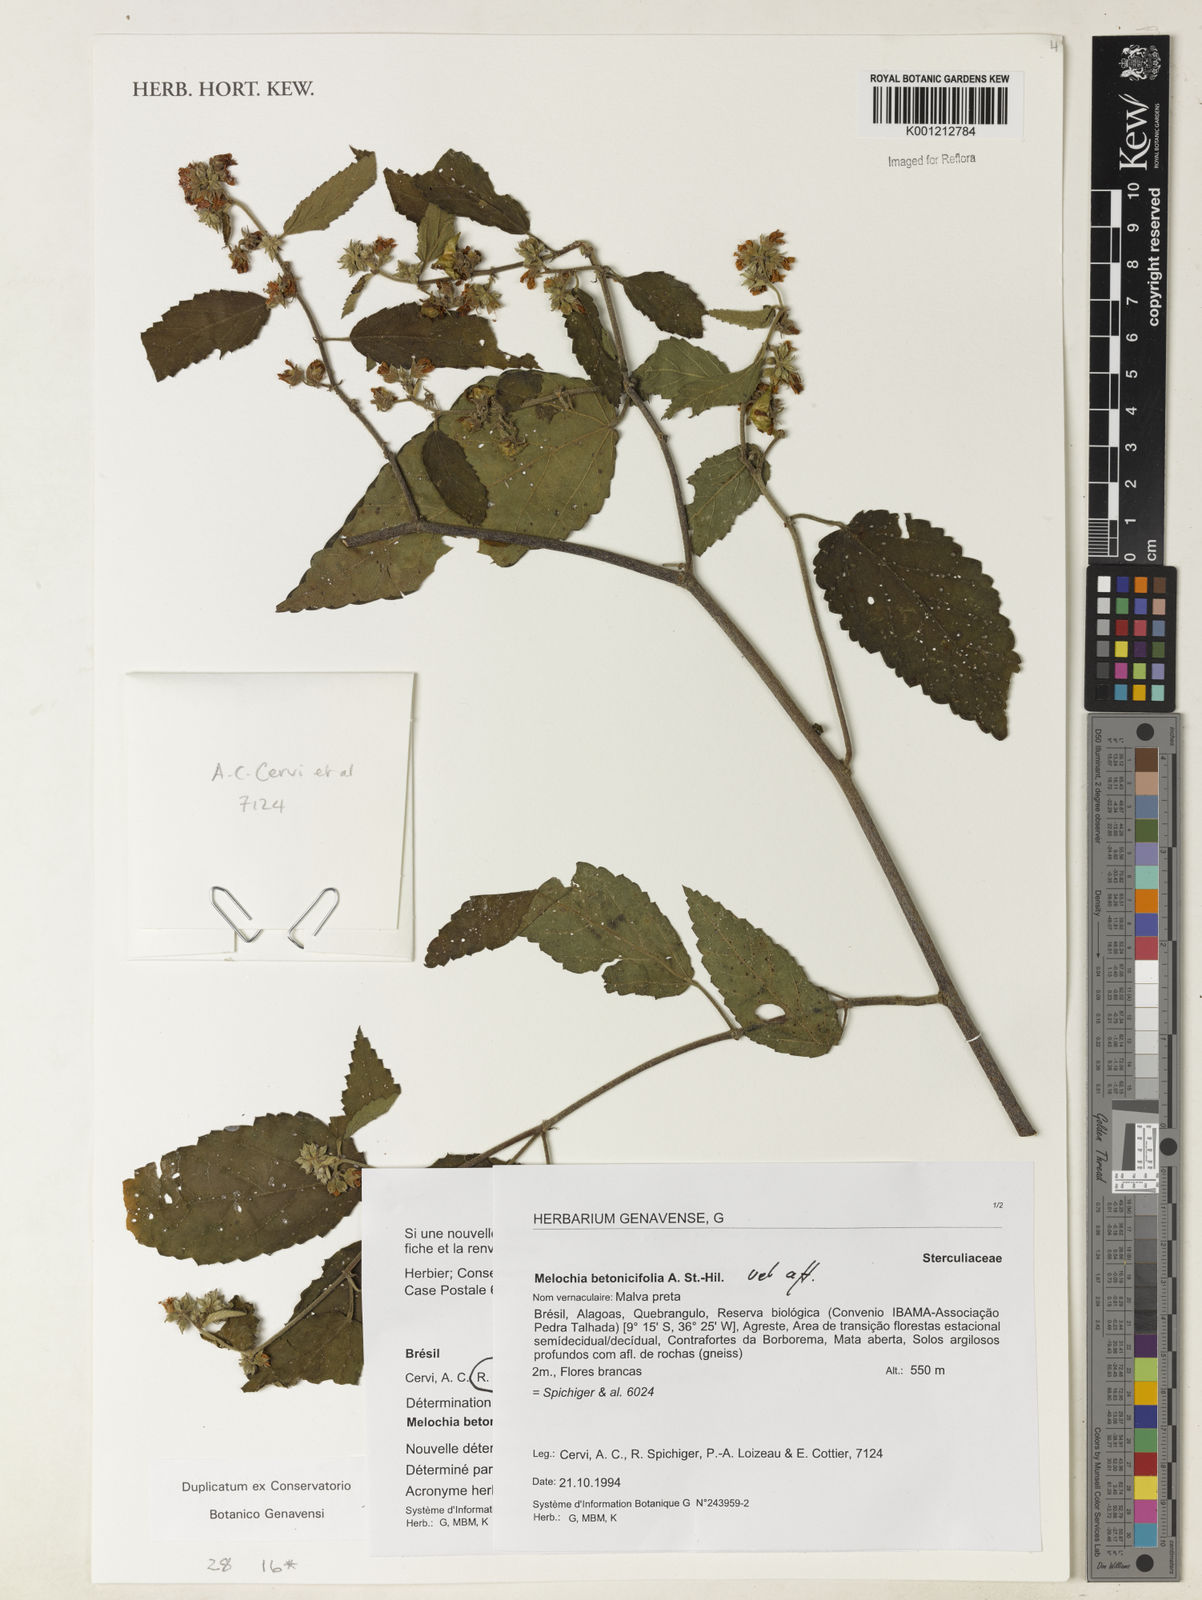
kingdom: Plantae
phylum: Tracheophyta
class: Magnoliopsida
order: Malvales
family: Malvaceae
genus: Melochia
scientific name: Melochia betonicifolia
